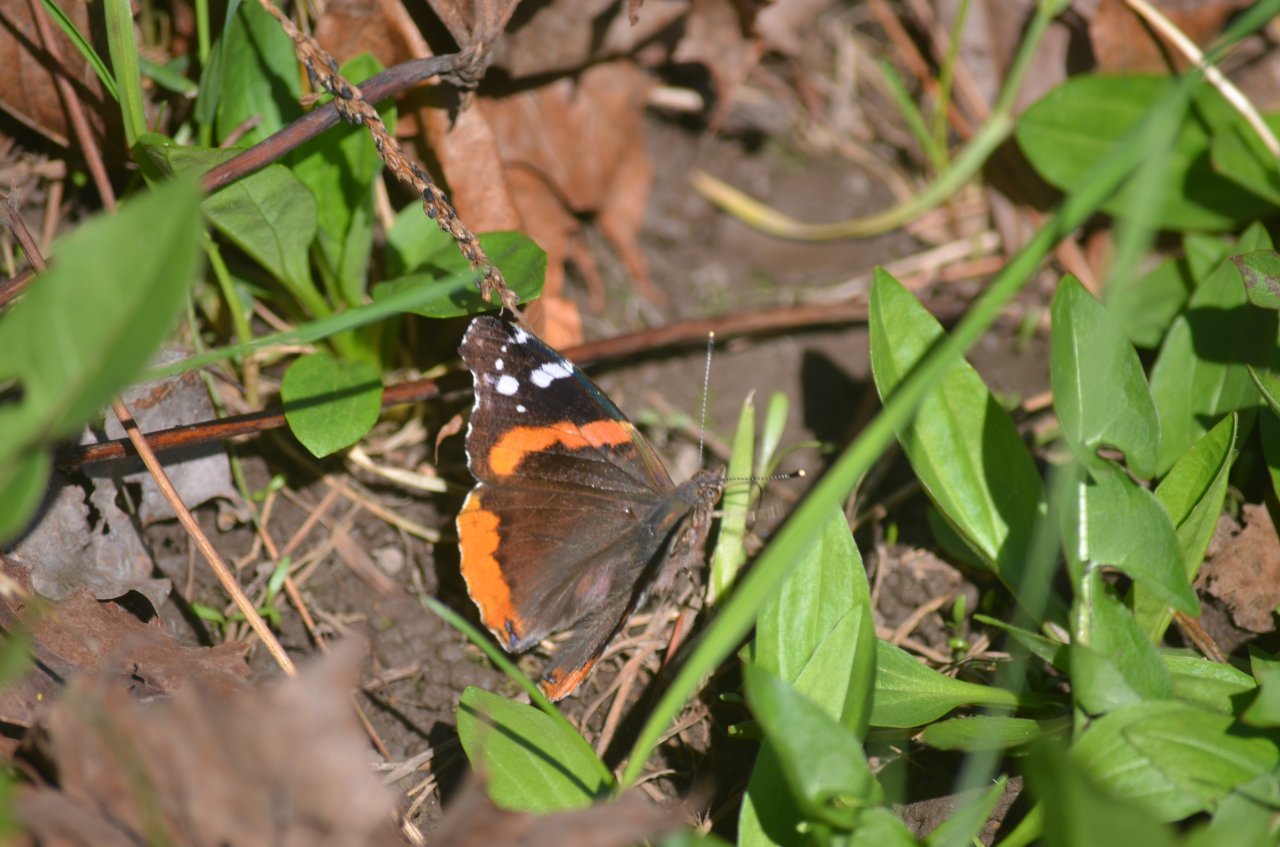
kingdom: Animalia
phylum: Arthropoda
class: Insecta
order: Lepidoptera
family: Nymphalidae
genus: Vanessa
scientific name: Vanessa atalanta
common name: Red Admiral
